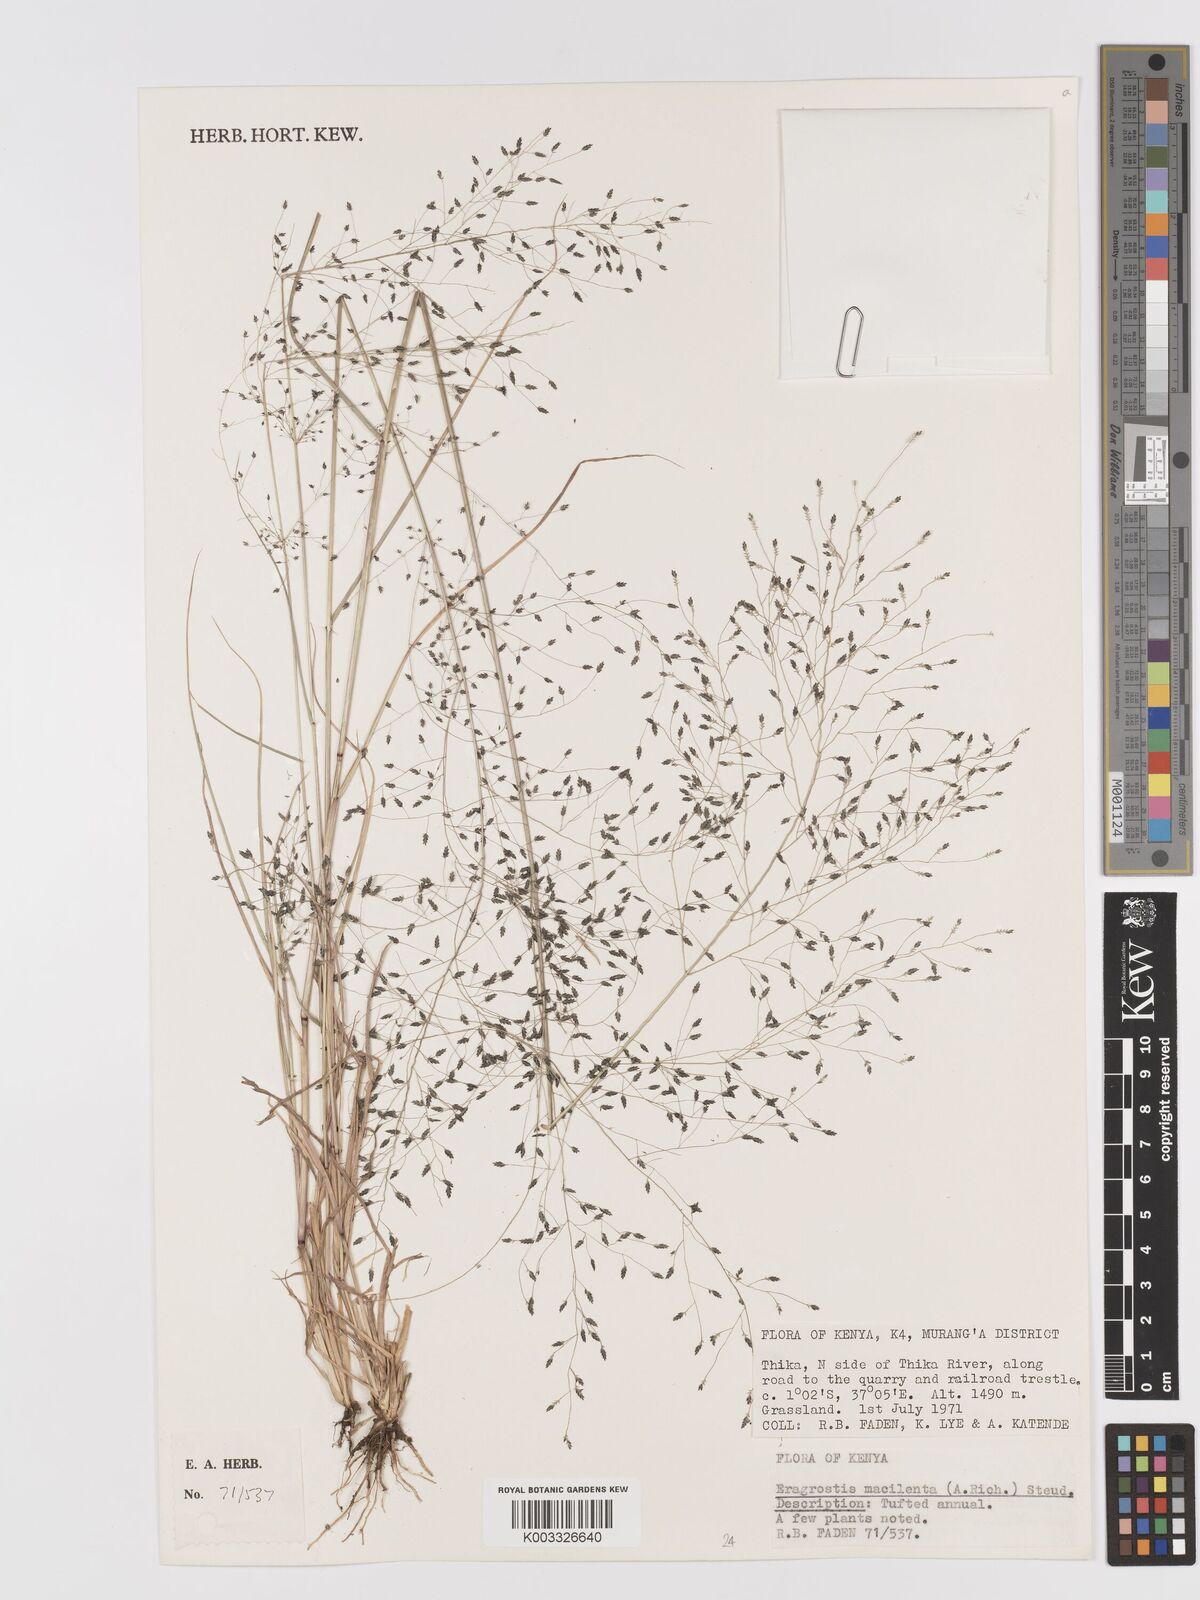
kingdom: Plantae
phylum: Tracheophyta
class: Liliopsida
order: Poales
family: Poaceae
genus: Eragrostis
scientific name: Eragrostis macilenta
